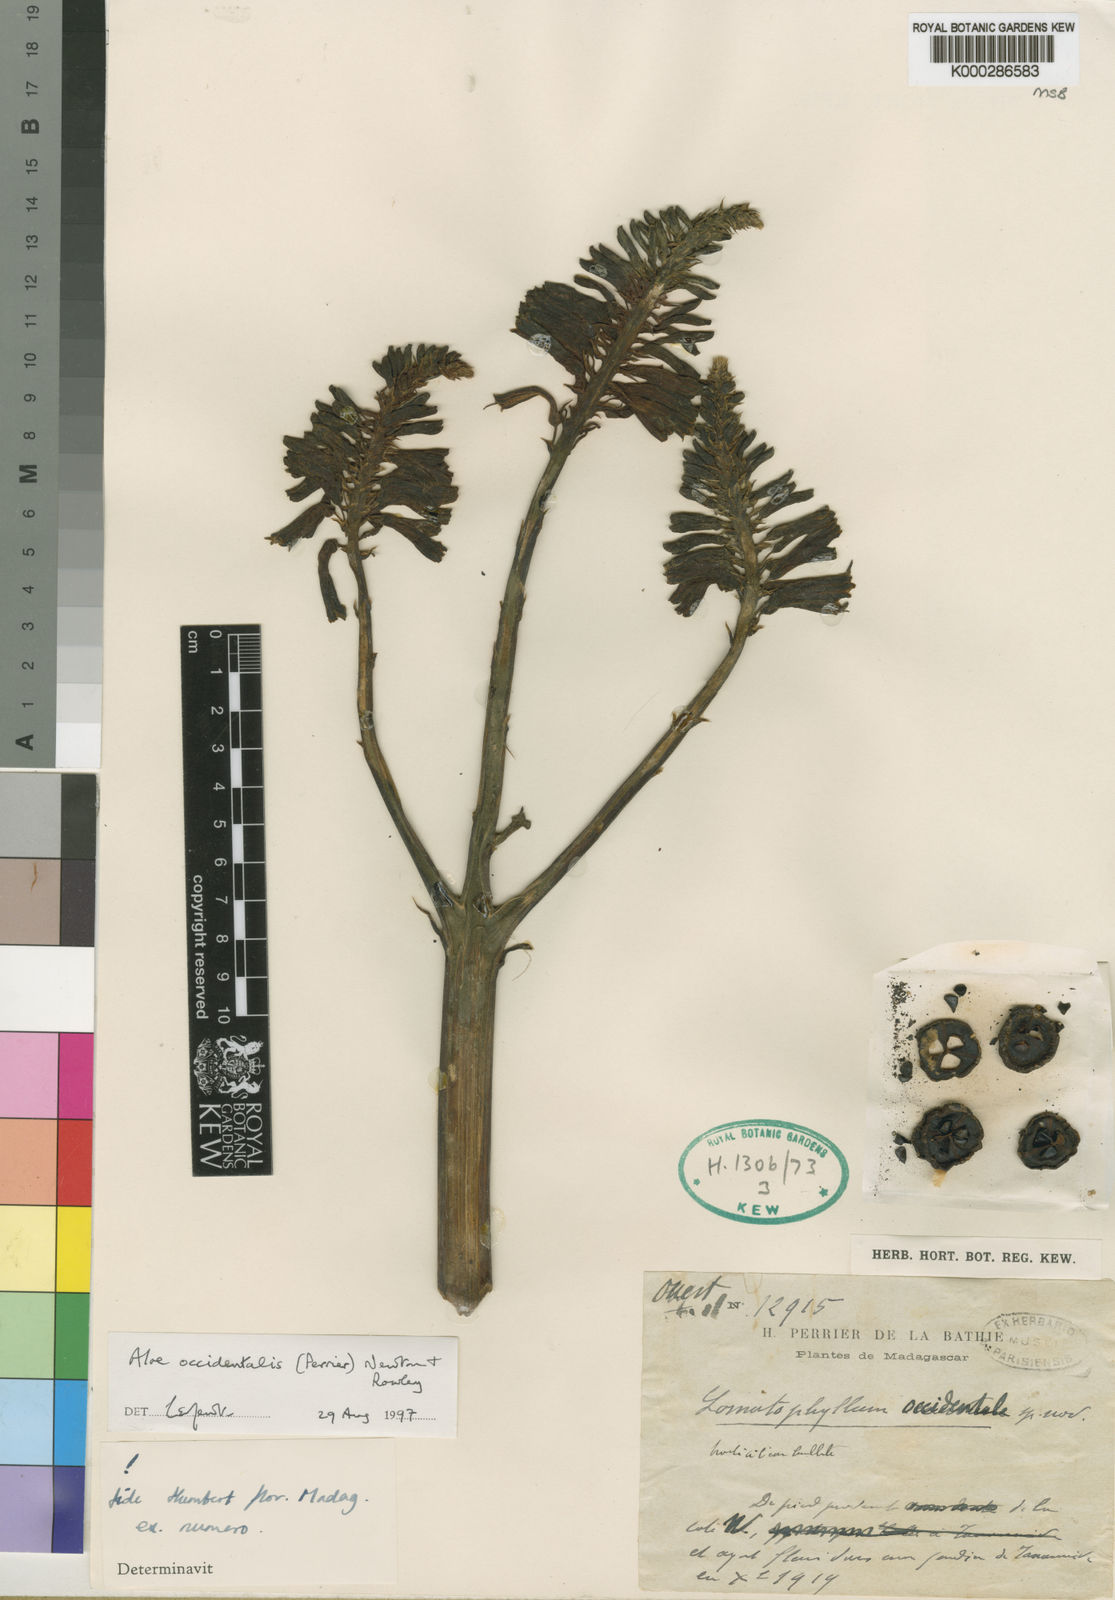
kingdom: Plantae
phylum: Tracheophyta
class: Liliopsida
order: Asparagales
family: Asphodelaceae
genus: Aloe
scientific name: Aloe occidentalis
